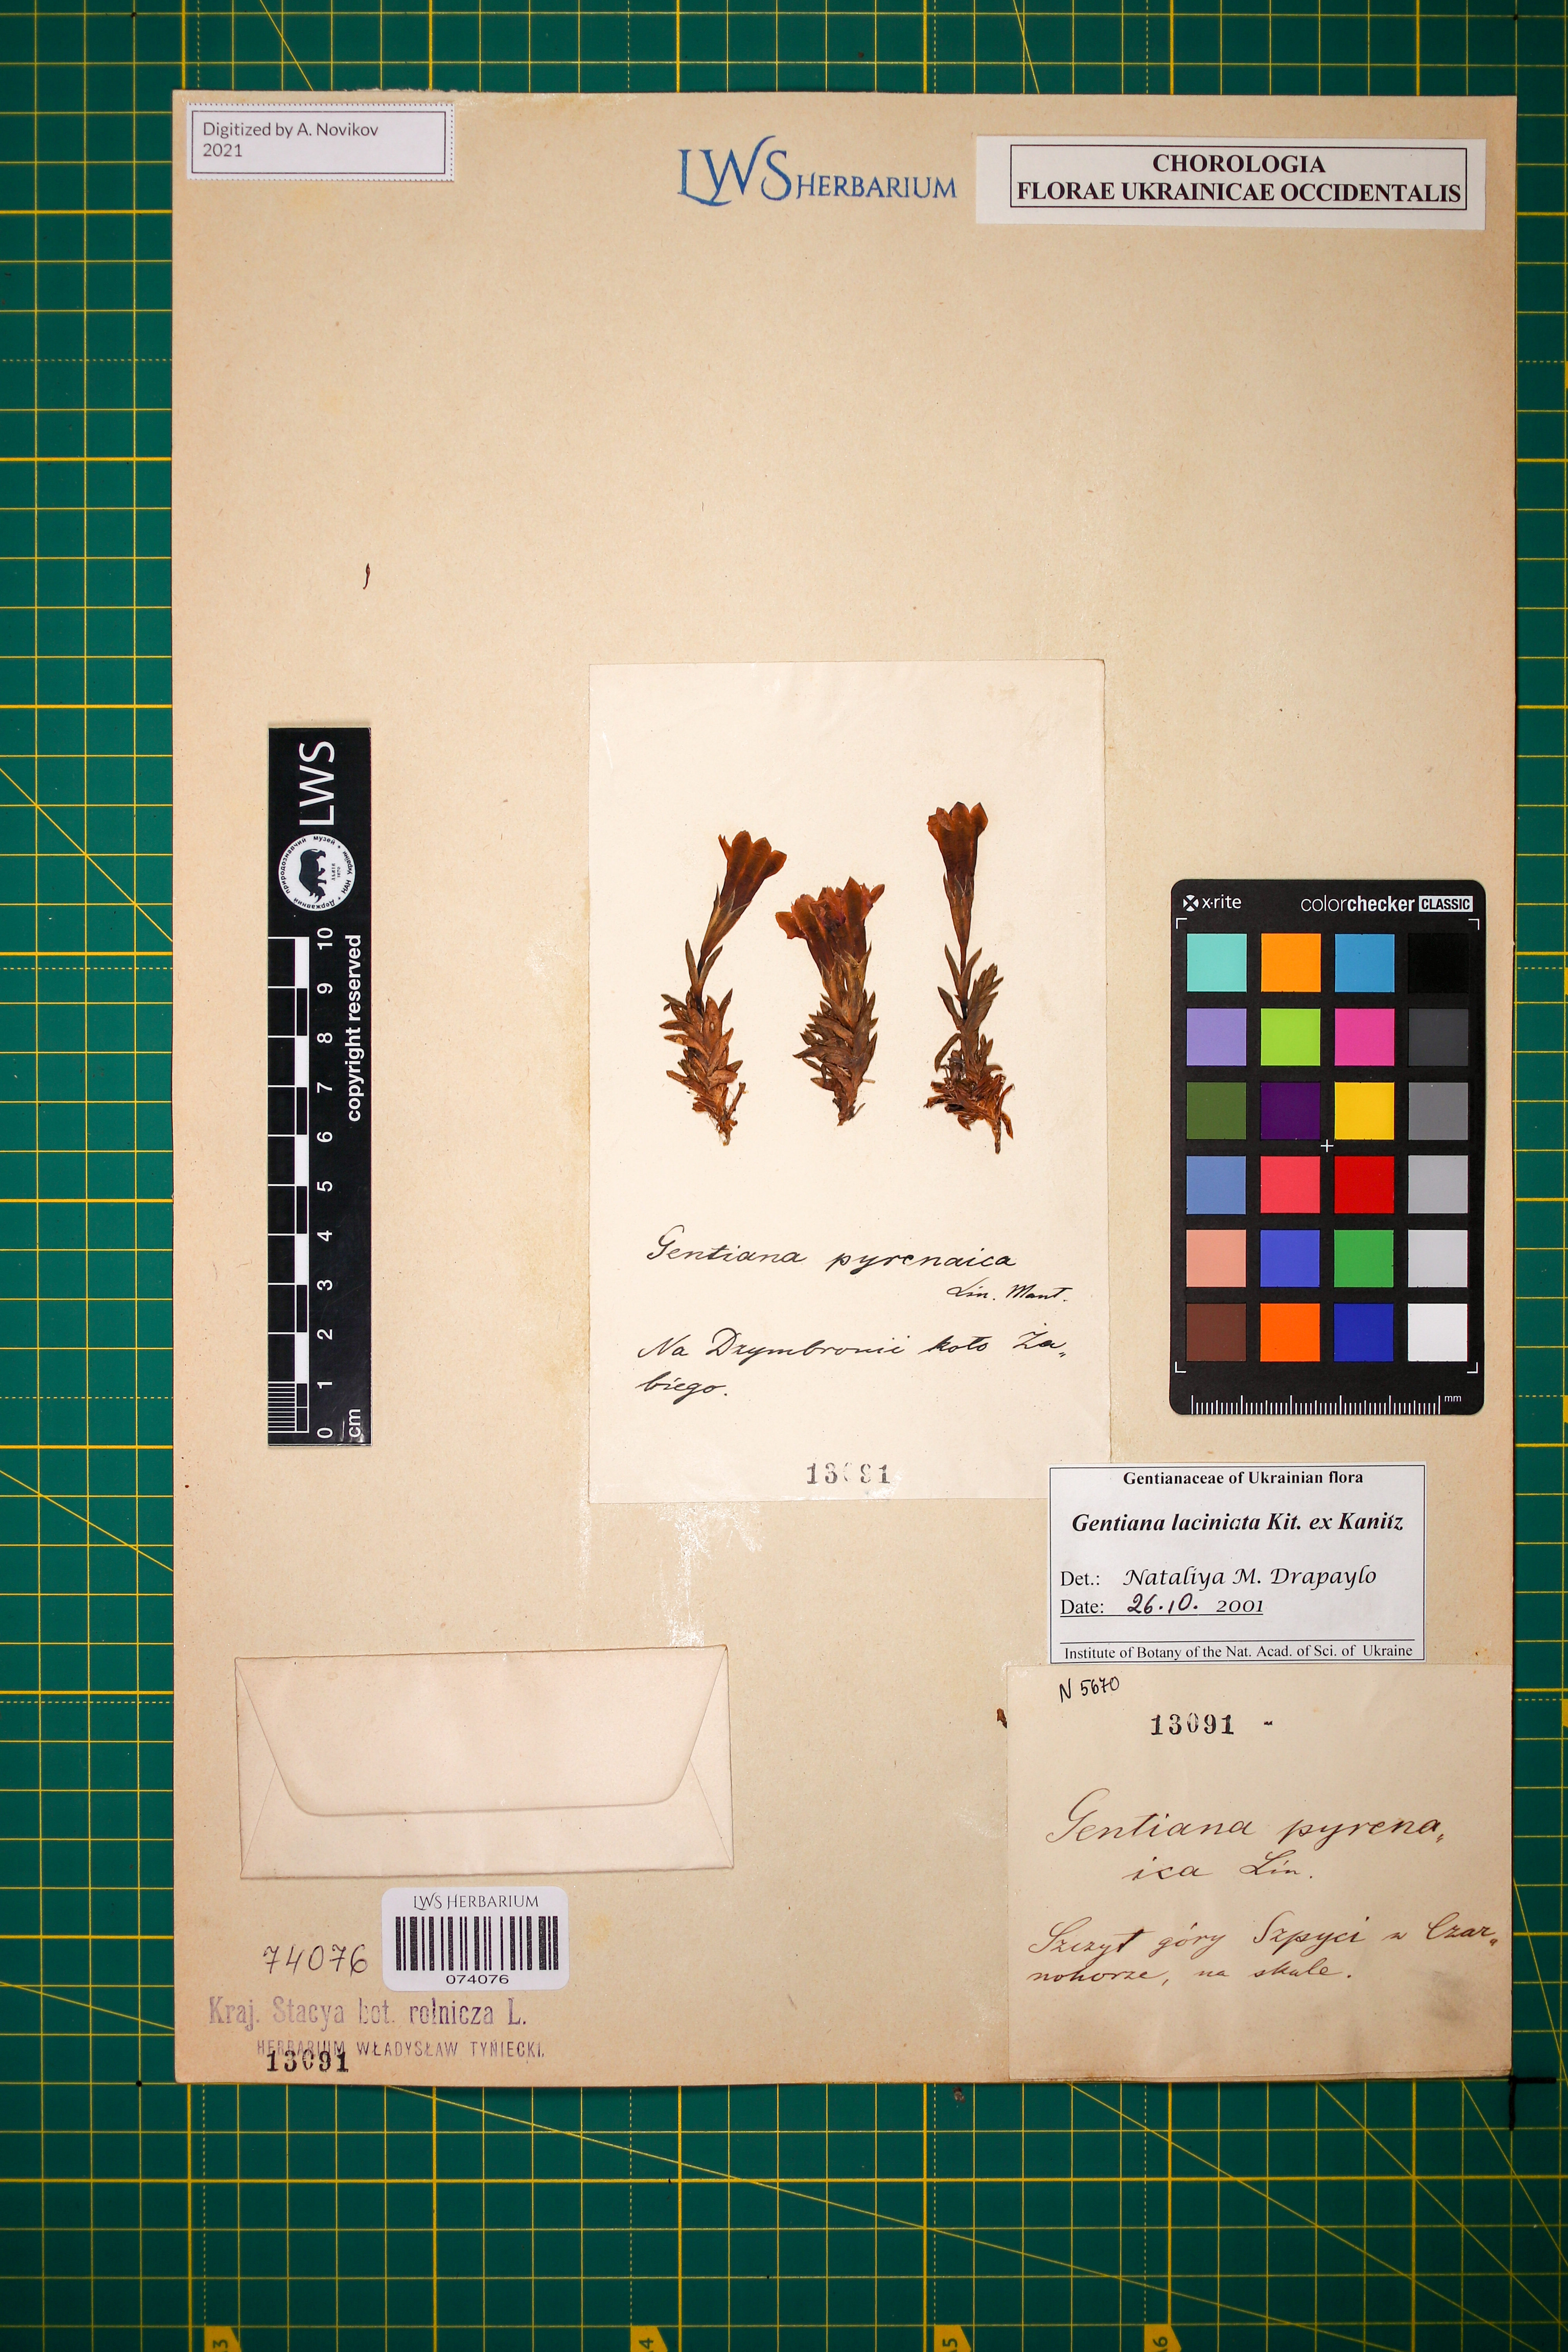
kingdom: Plantae
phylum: Tracheophyta
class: Magnoliopsida
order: Gentianales
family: Gentianaceae
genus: Gentiana
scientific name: Gentiana laciniata
